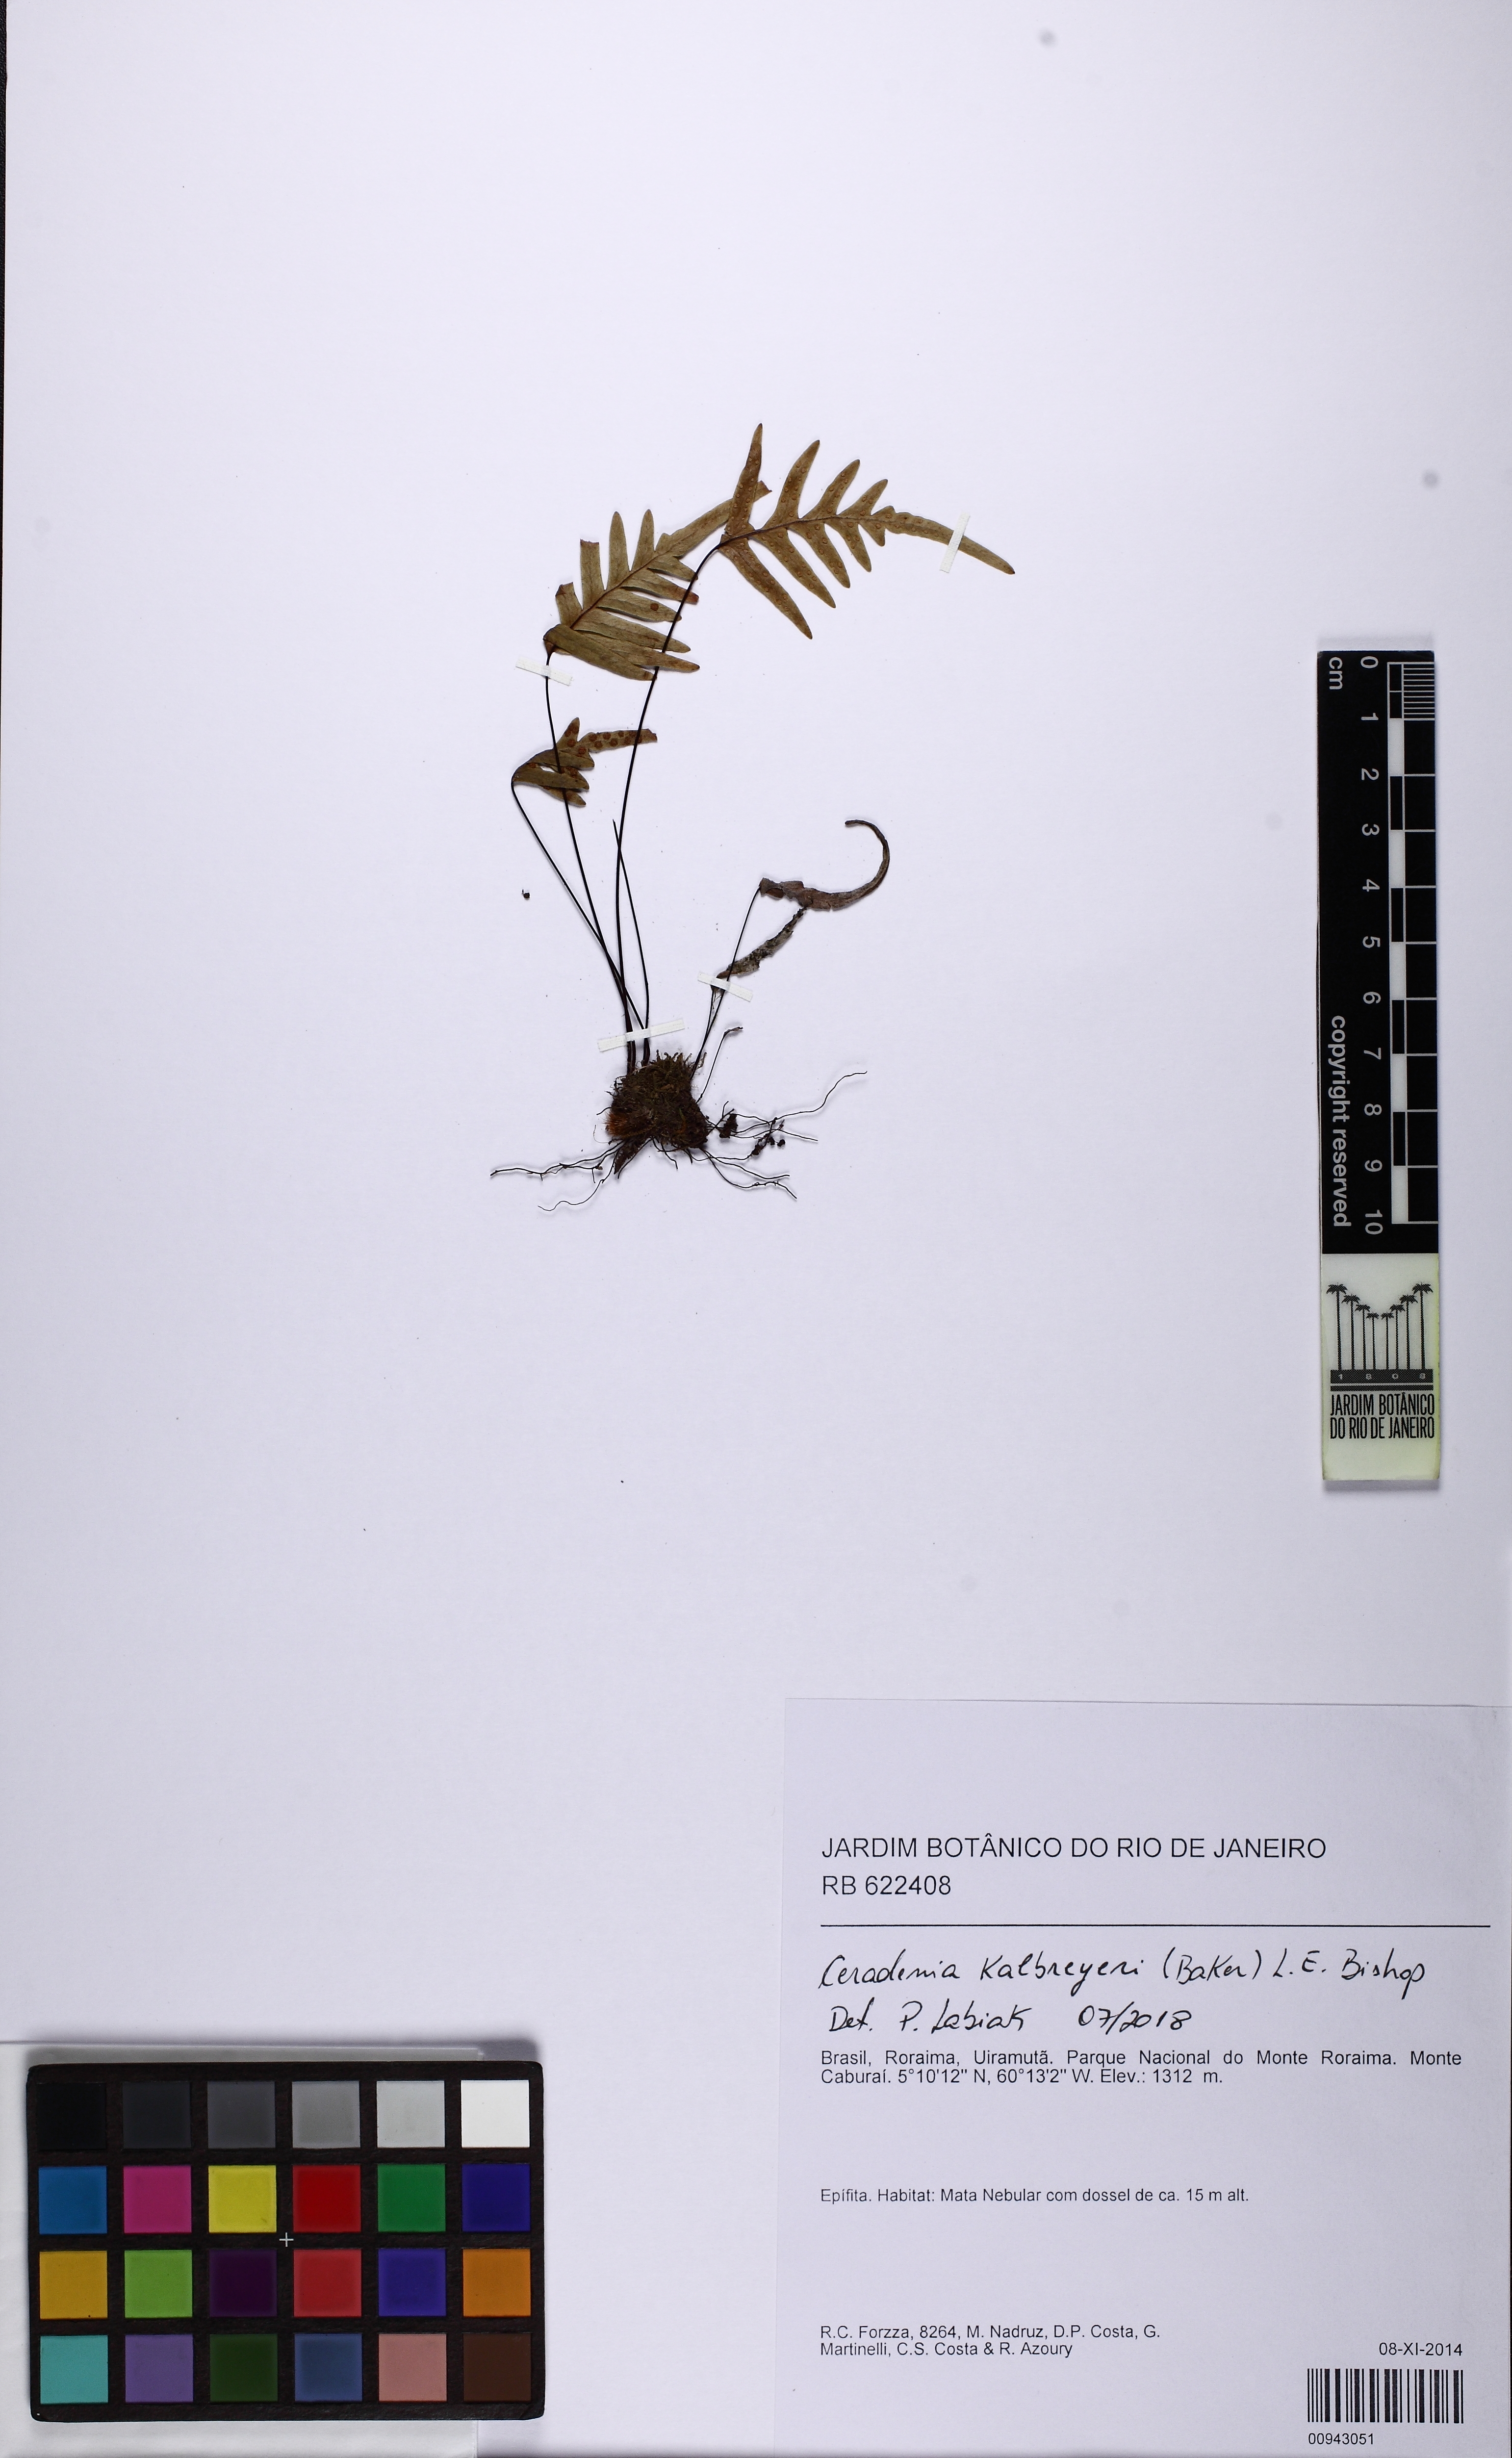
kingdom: Plantae
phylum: Tracheophyta
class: Polypodiopsida
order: Polypodiales
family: Polypodiaceae
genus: Ceradenia
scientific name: Ceradenia kalbreyeri
